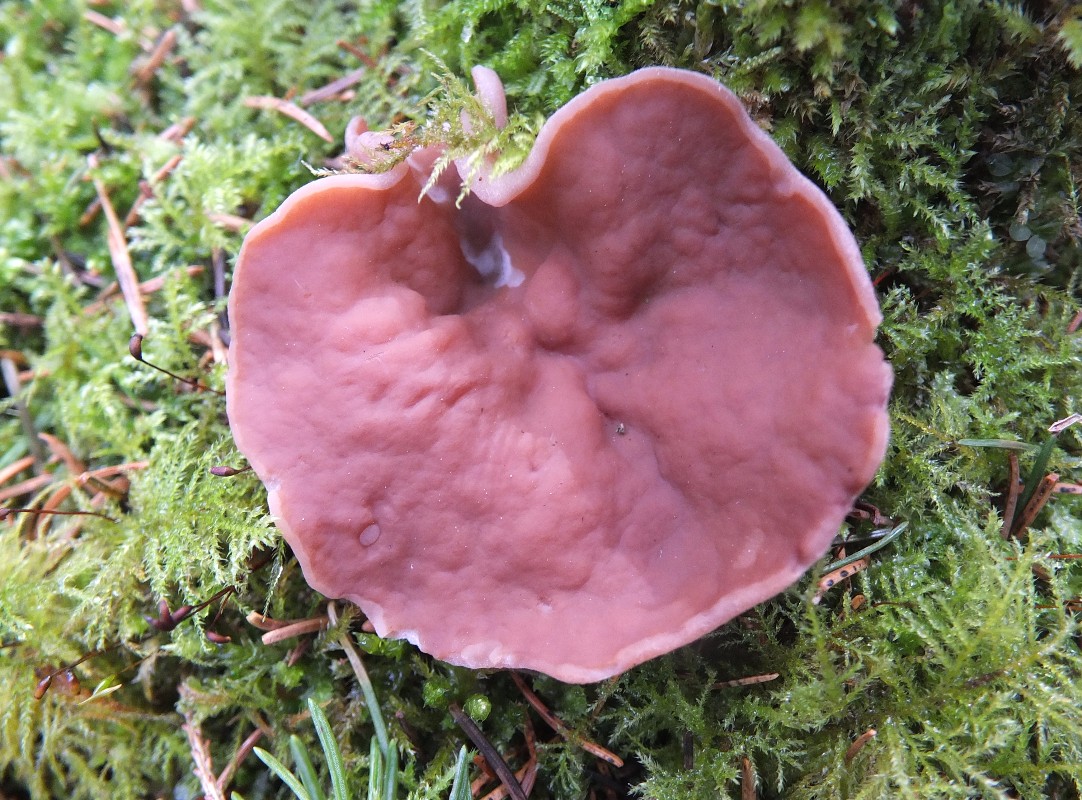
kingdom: Fungi
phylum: Ascomycota
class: Pezizomycetes
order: Pezizales
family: Discinaceae
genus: Discina
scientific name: Discina ancilis
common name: udbredt stenmorkel
